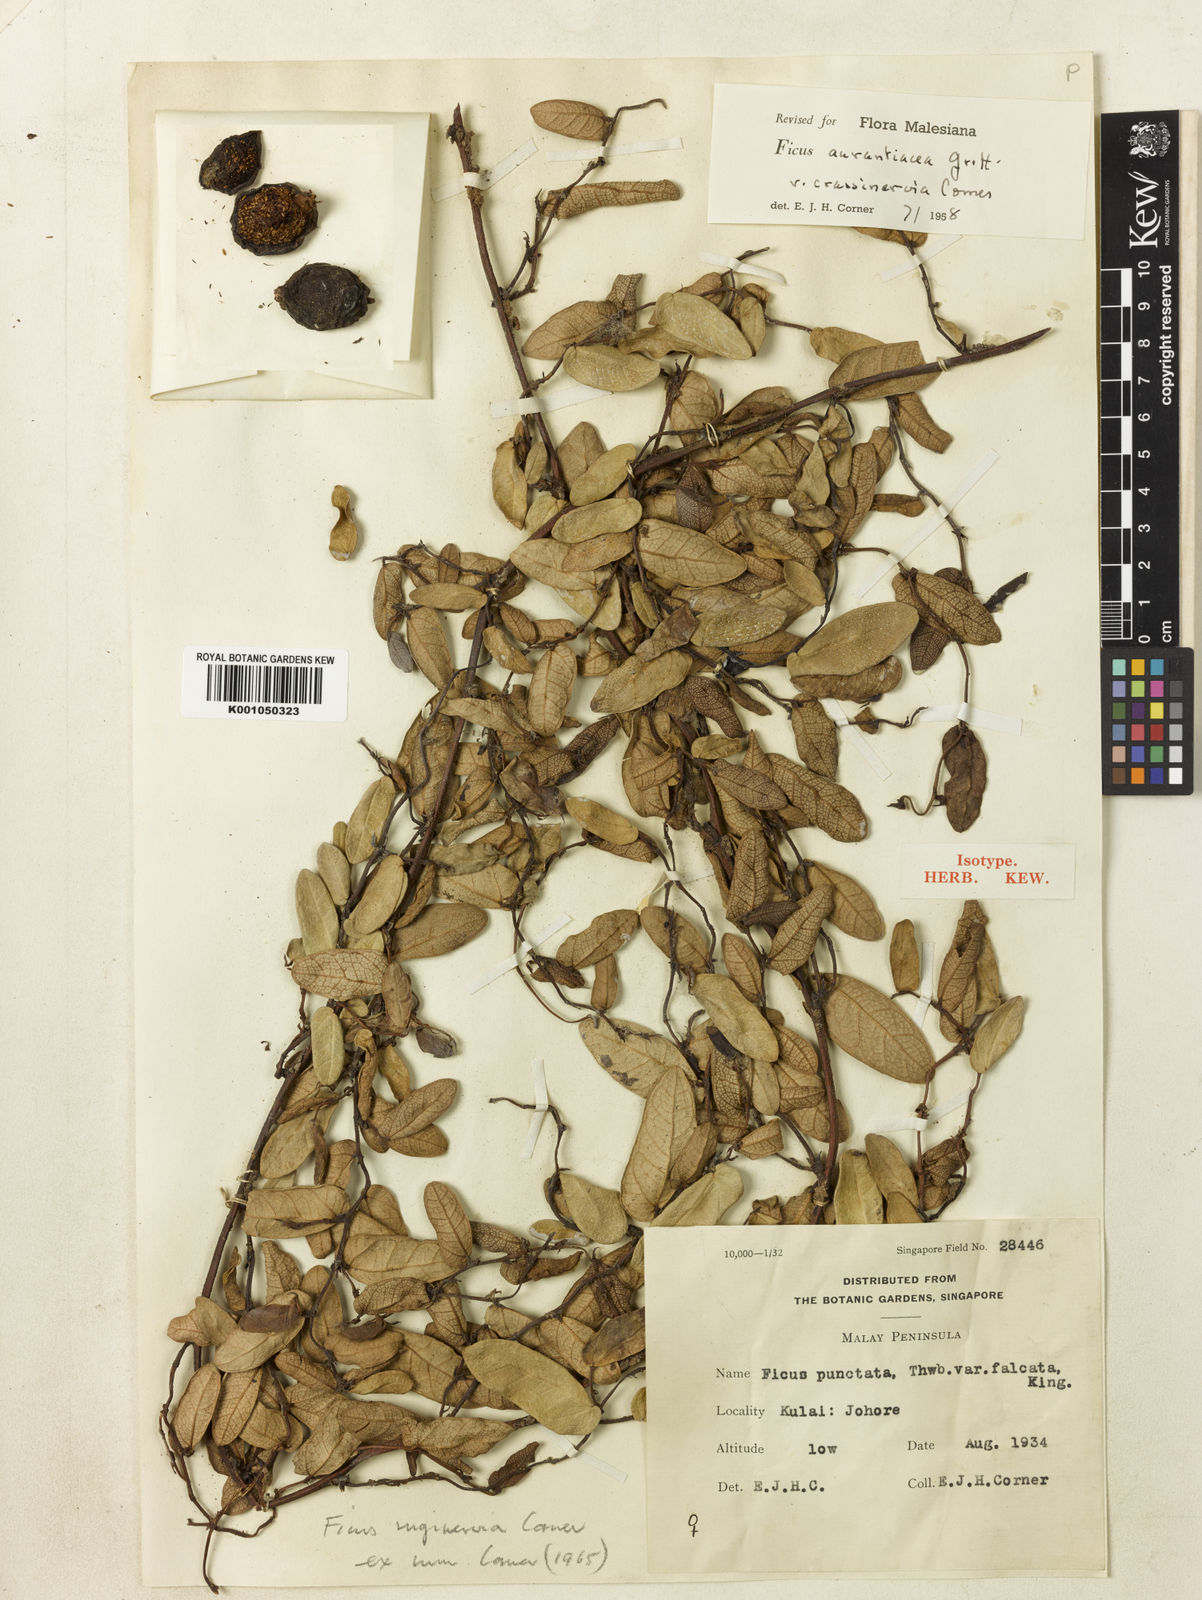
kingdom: Plantae
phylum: Tracheophyta
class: Magnoliopsida
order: Rosales
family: Moraceae
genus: Ficus
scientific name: Ficus ruginervia
